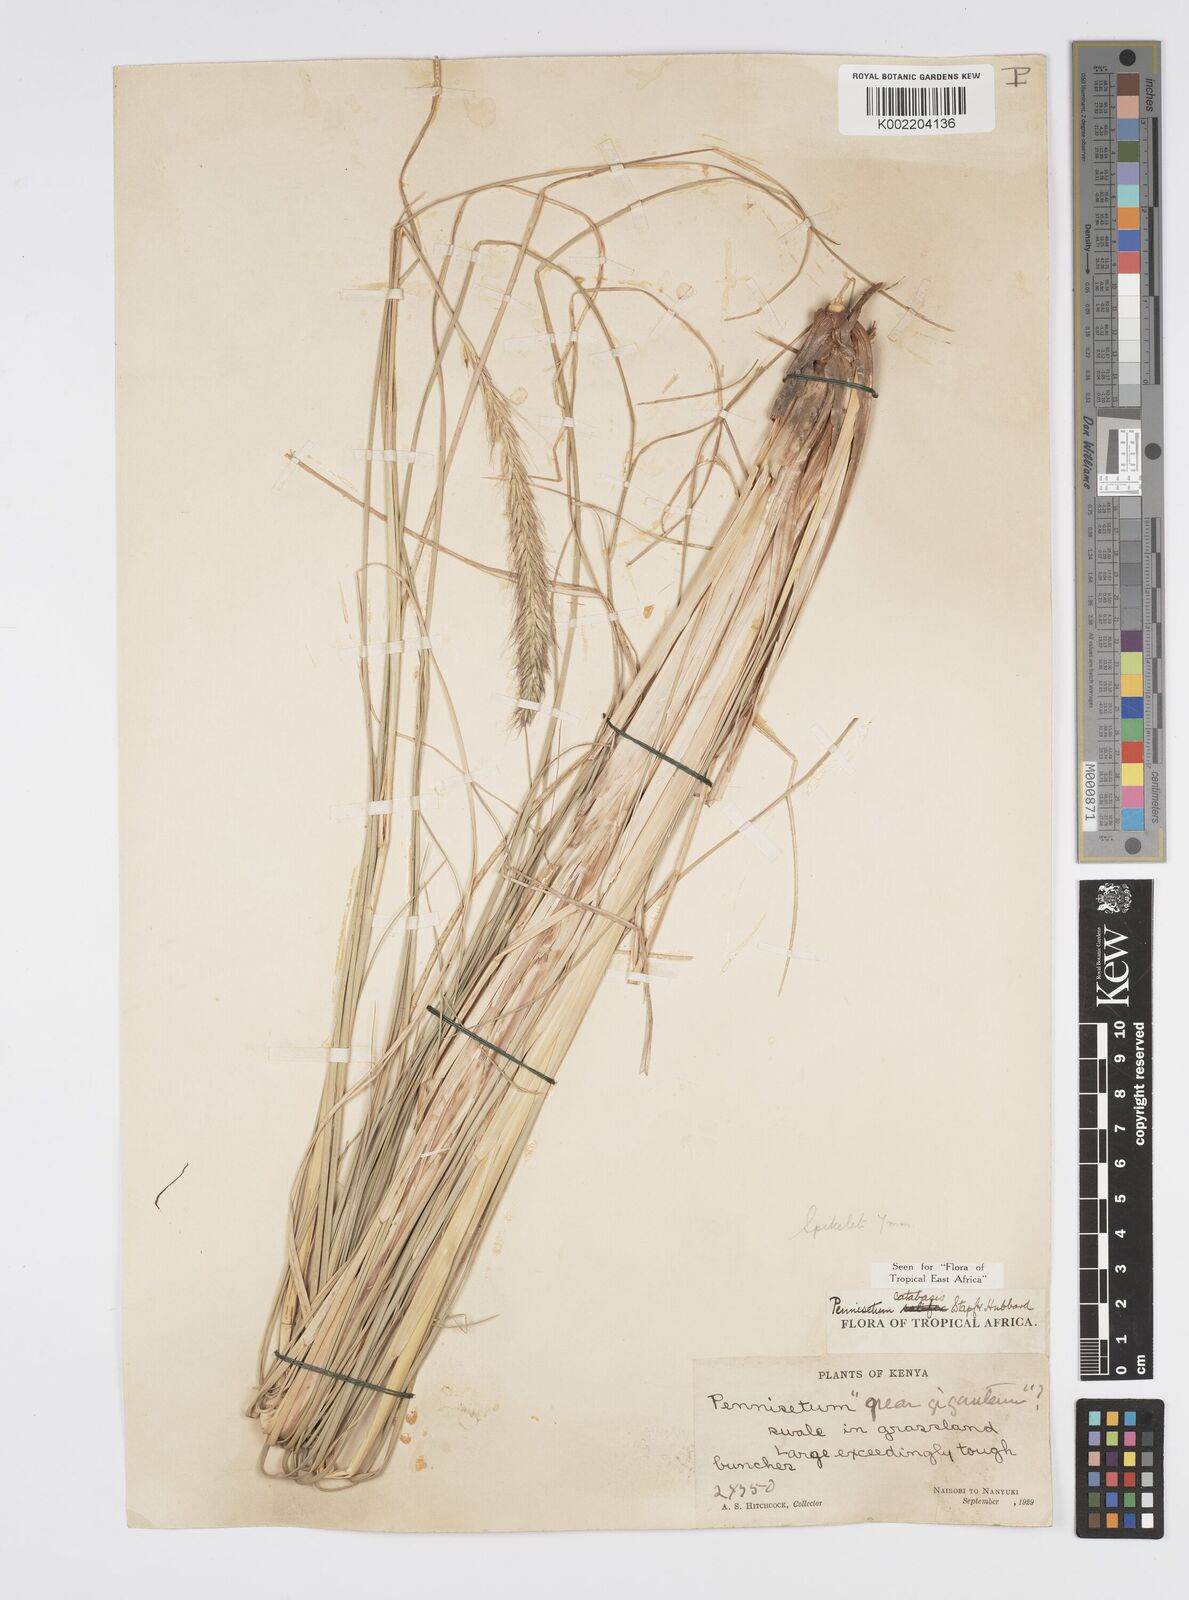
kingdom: Plantae
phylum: Tracheophyta
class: Liliopsida
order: Poales
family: Poaceae
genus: Cenchrus
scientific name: Cenchrus Pennisetum spec
